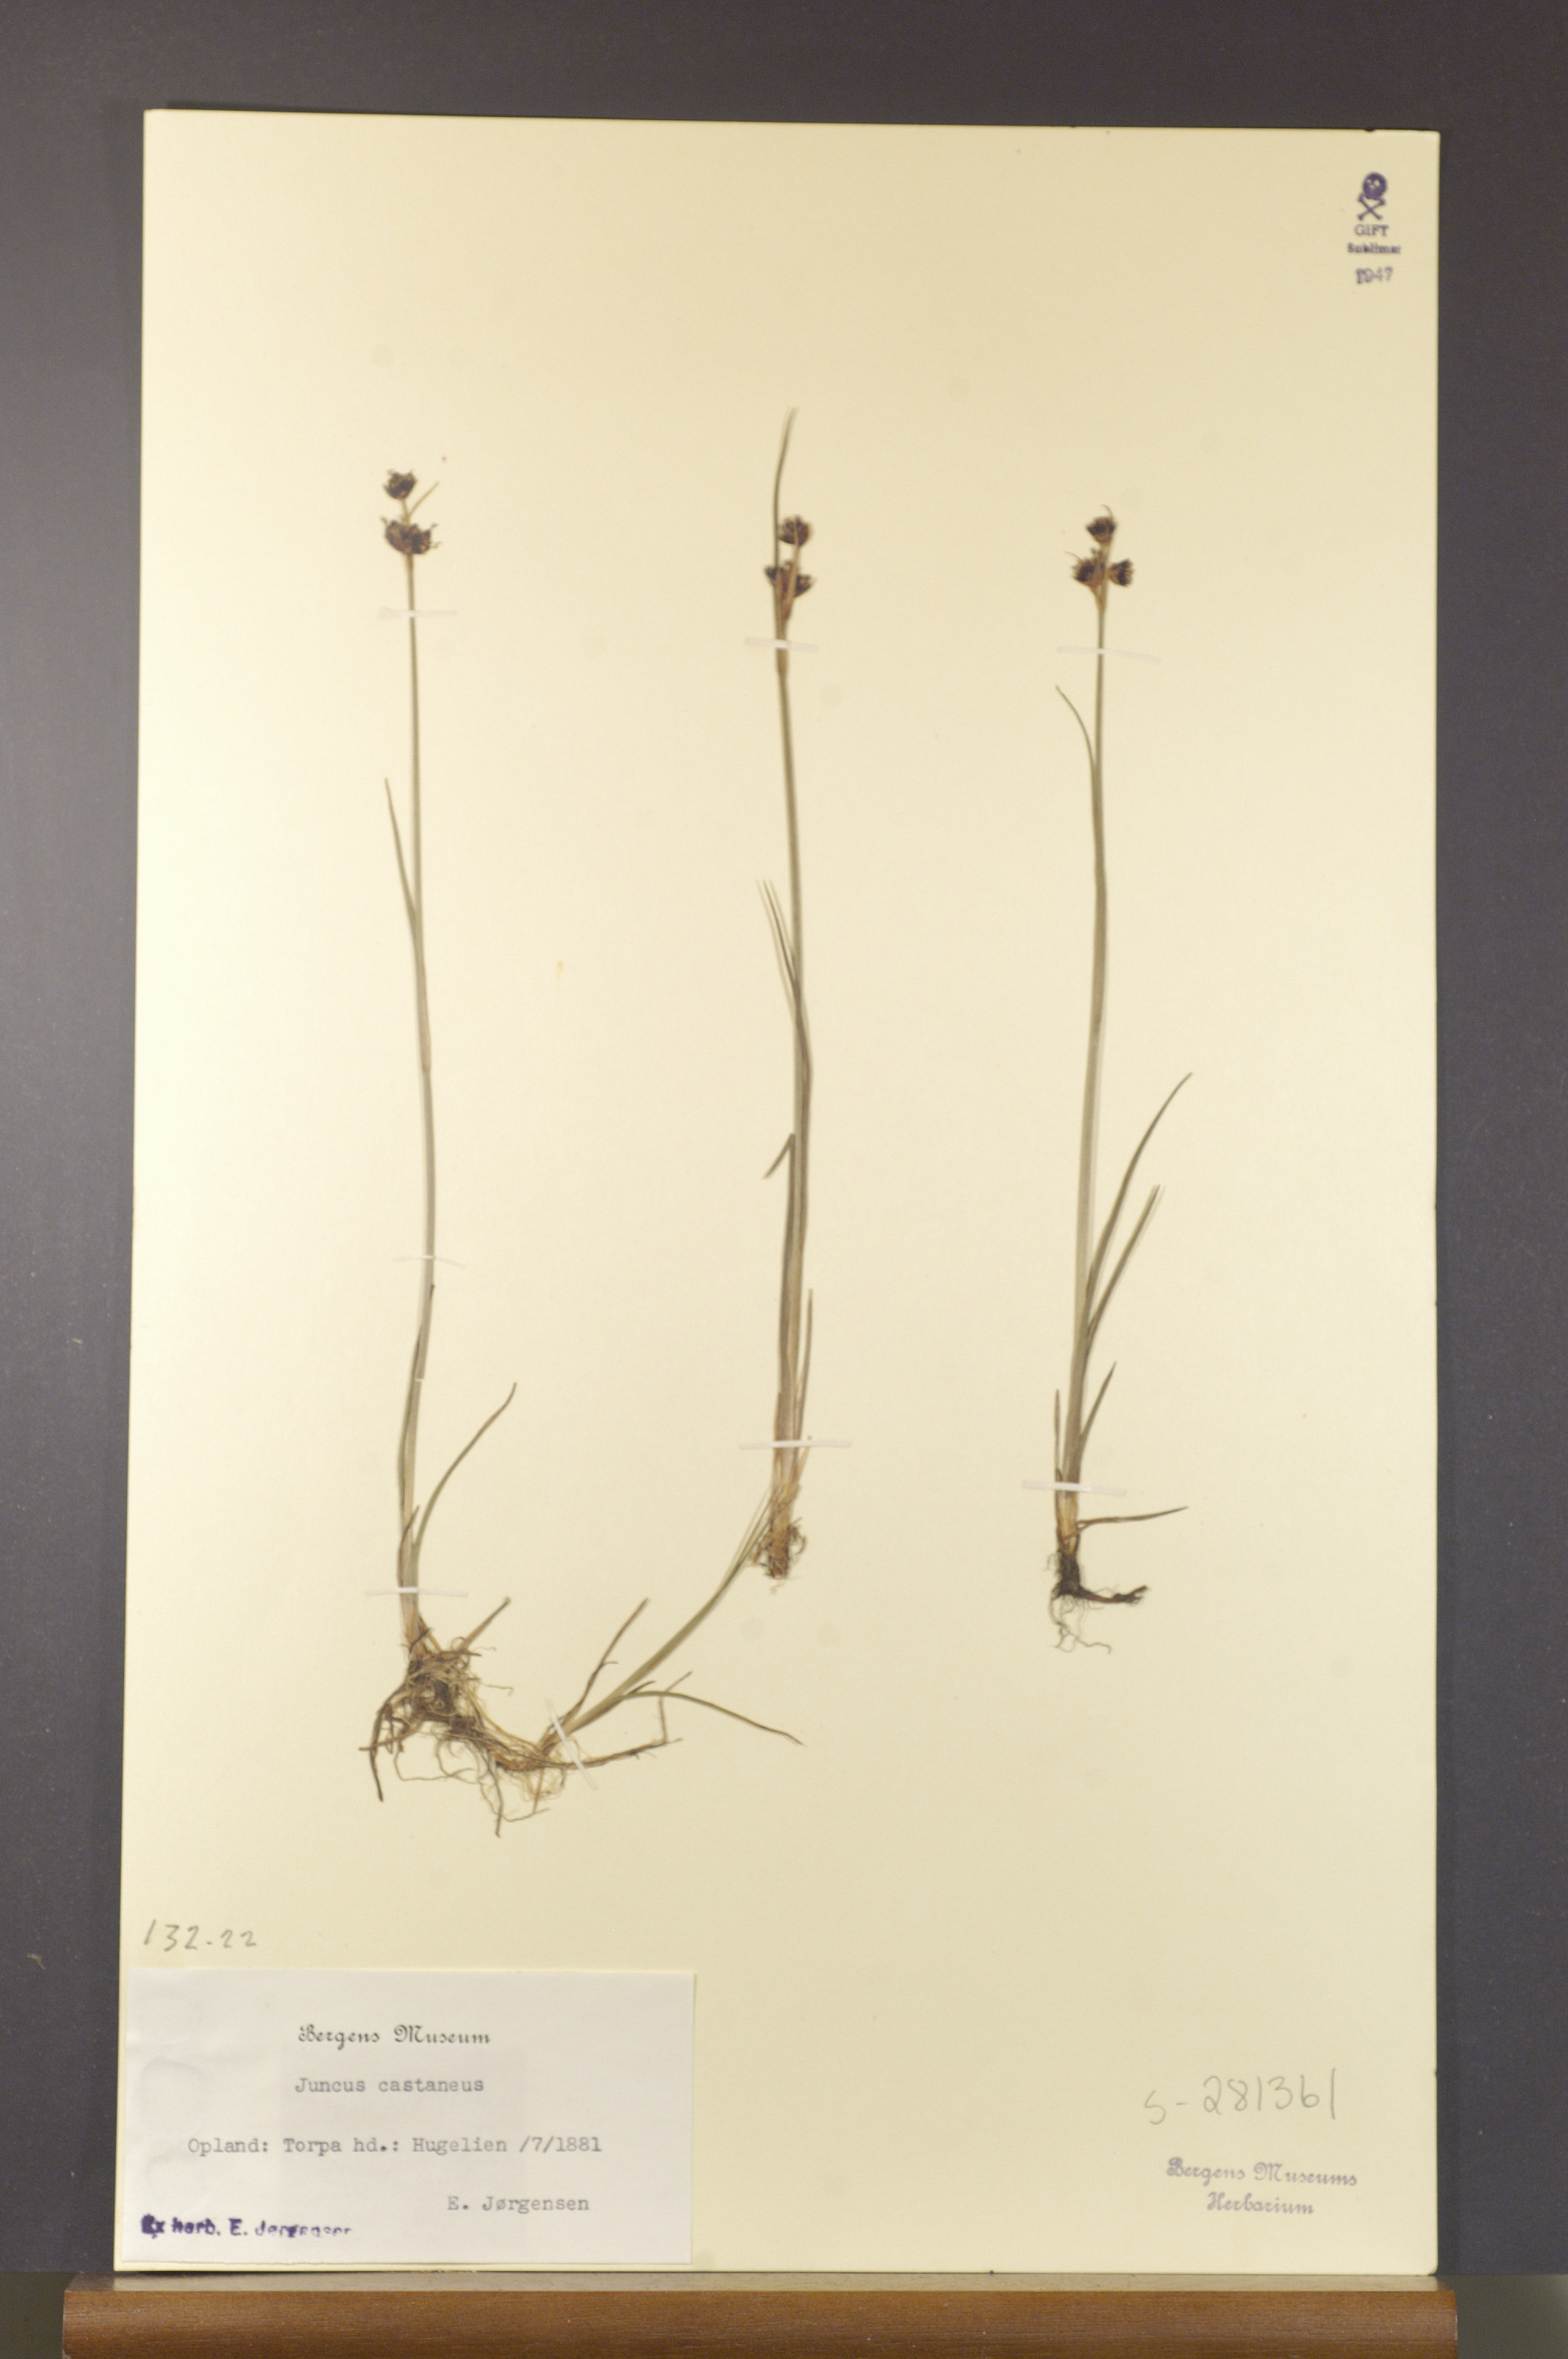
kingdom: Plantae
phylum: Tracheophyta
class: Liliopsida
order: Poales
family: Juncaceae
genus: Juncus
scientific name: Juncus castaneus
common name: Chestnut rush
